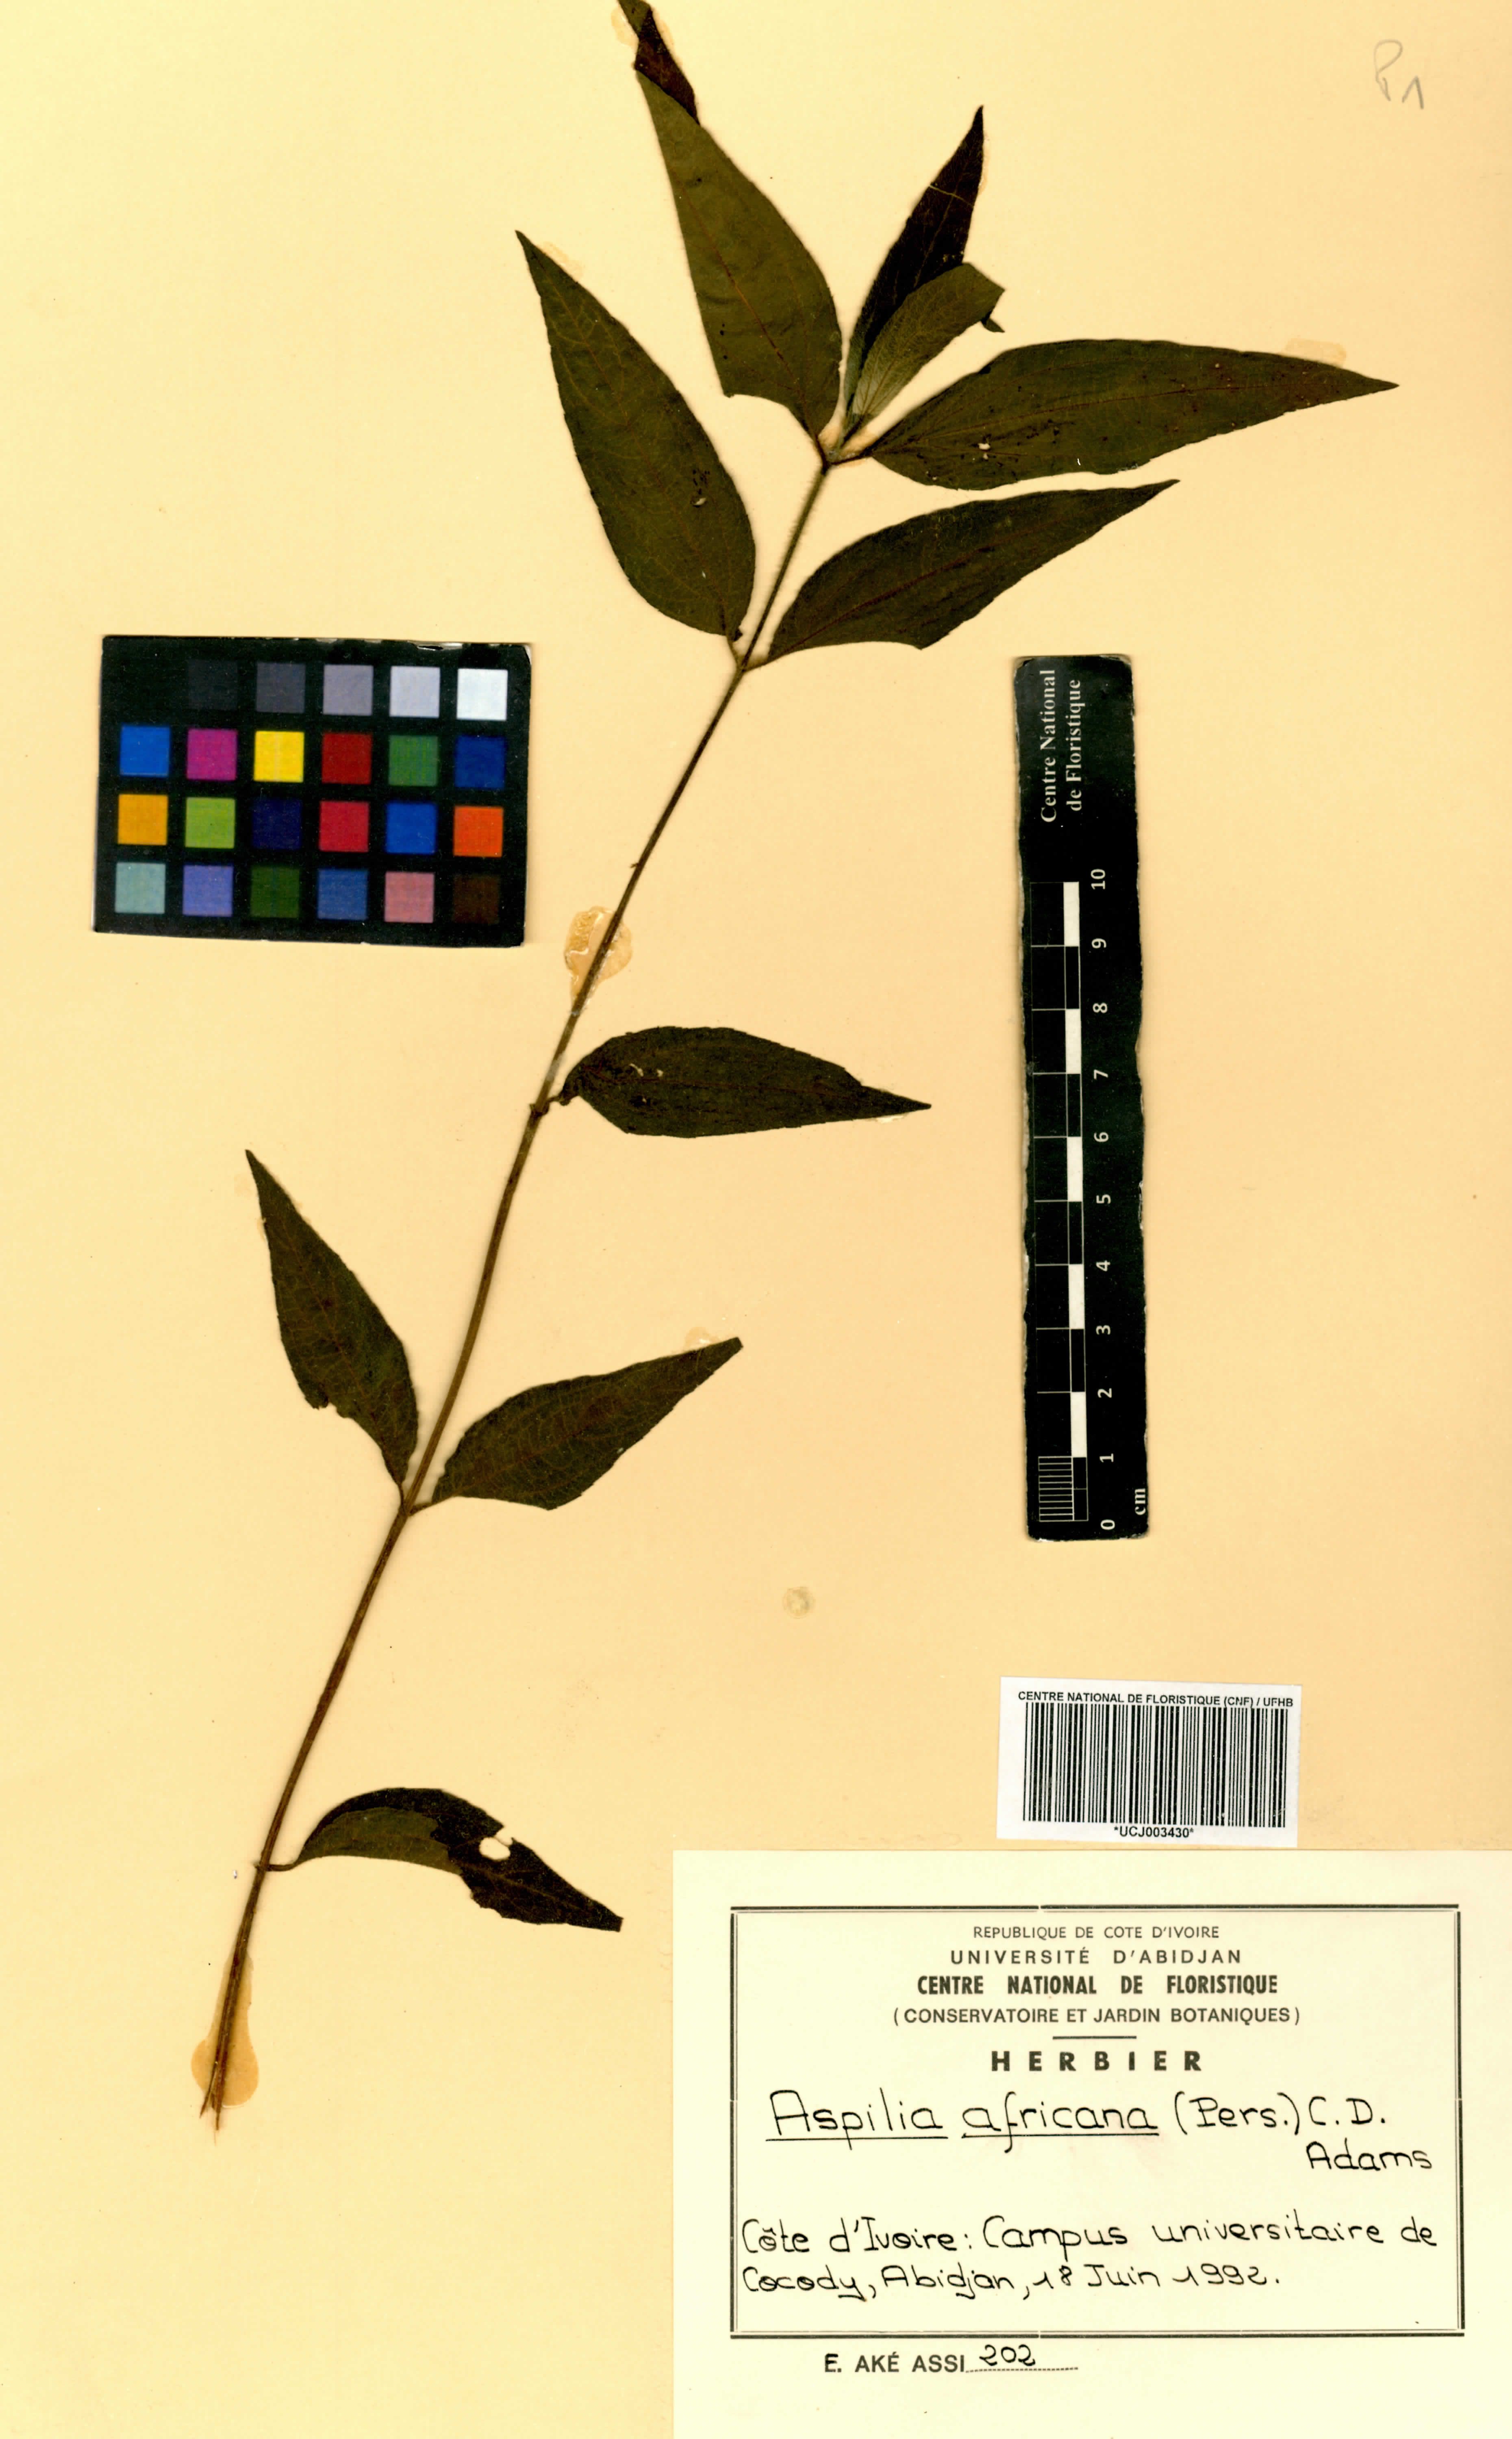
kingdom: Plantae
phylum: Tracheophyta
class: Magnoliopsida
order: Asterales
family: Asteraceae
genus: Aspilia
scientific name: Aspilia africana
